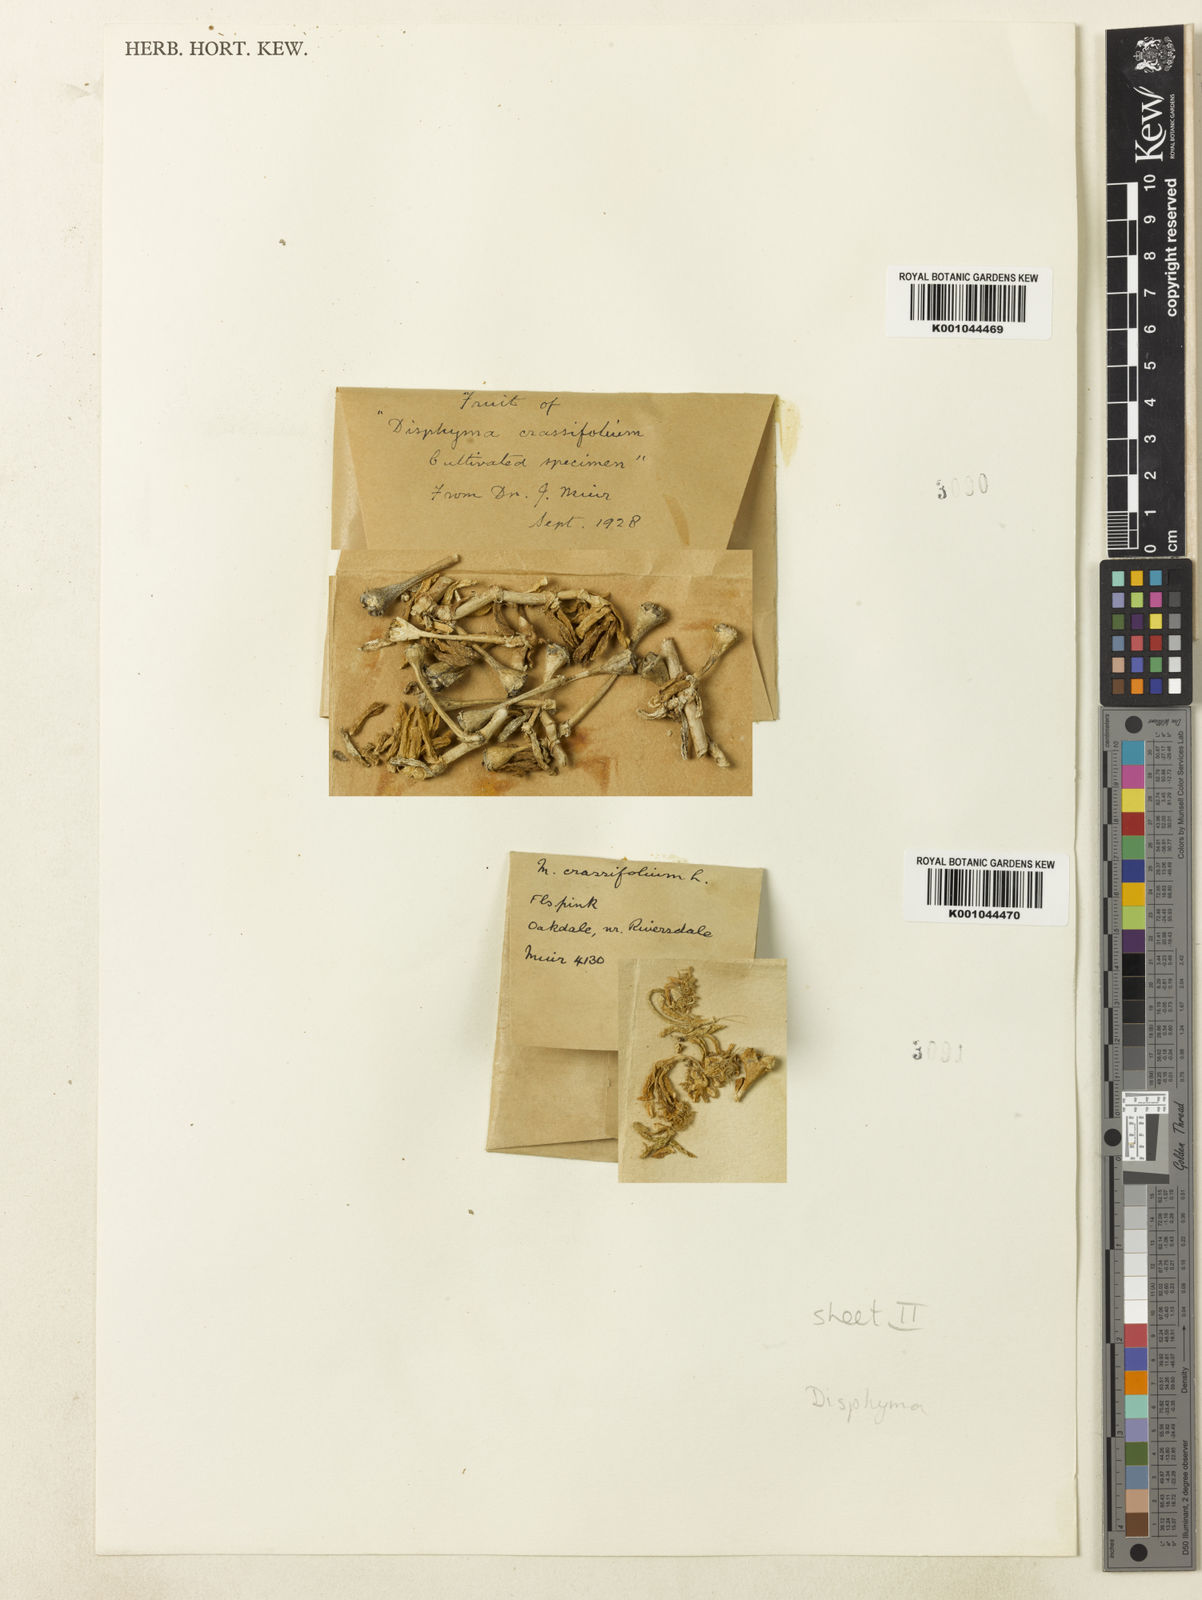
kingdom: Plantae
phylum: Tracheophyta
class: Magnoliopsida
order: Caryophyllales
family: Aizoaceae
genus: Disphyma
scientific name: Disphyma dunsdonii
